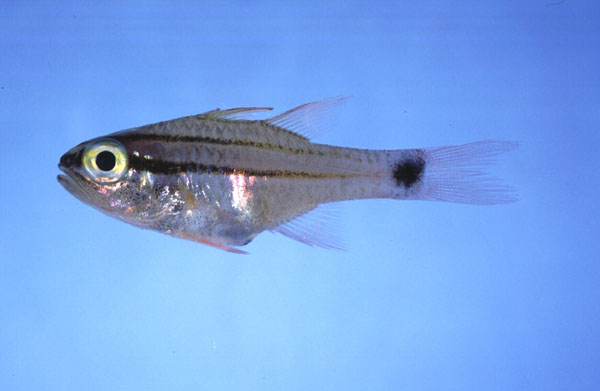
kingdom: Animalia
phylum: Chordata
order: Perciformes
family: Apogonidae
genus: Ostorhinchus
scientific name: Ostorhinchus fukuii
